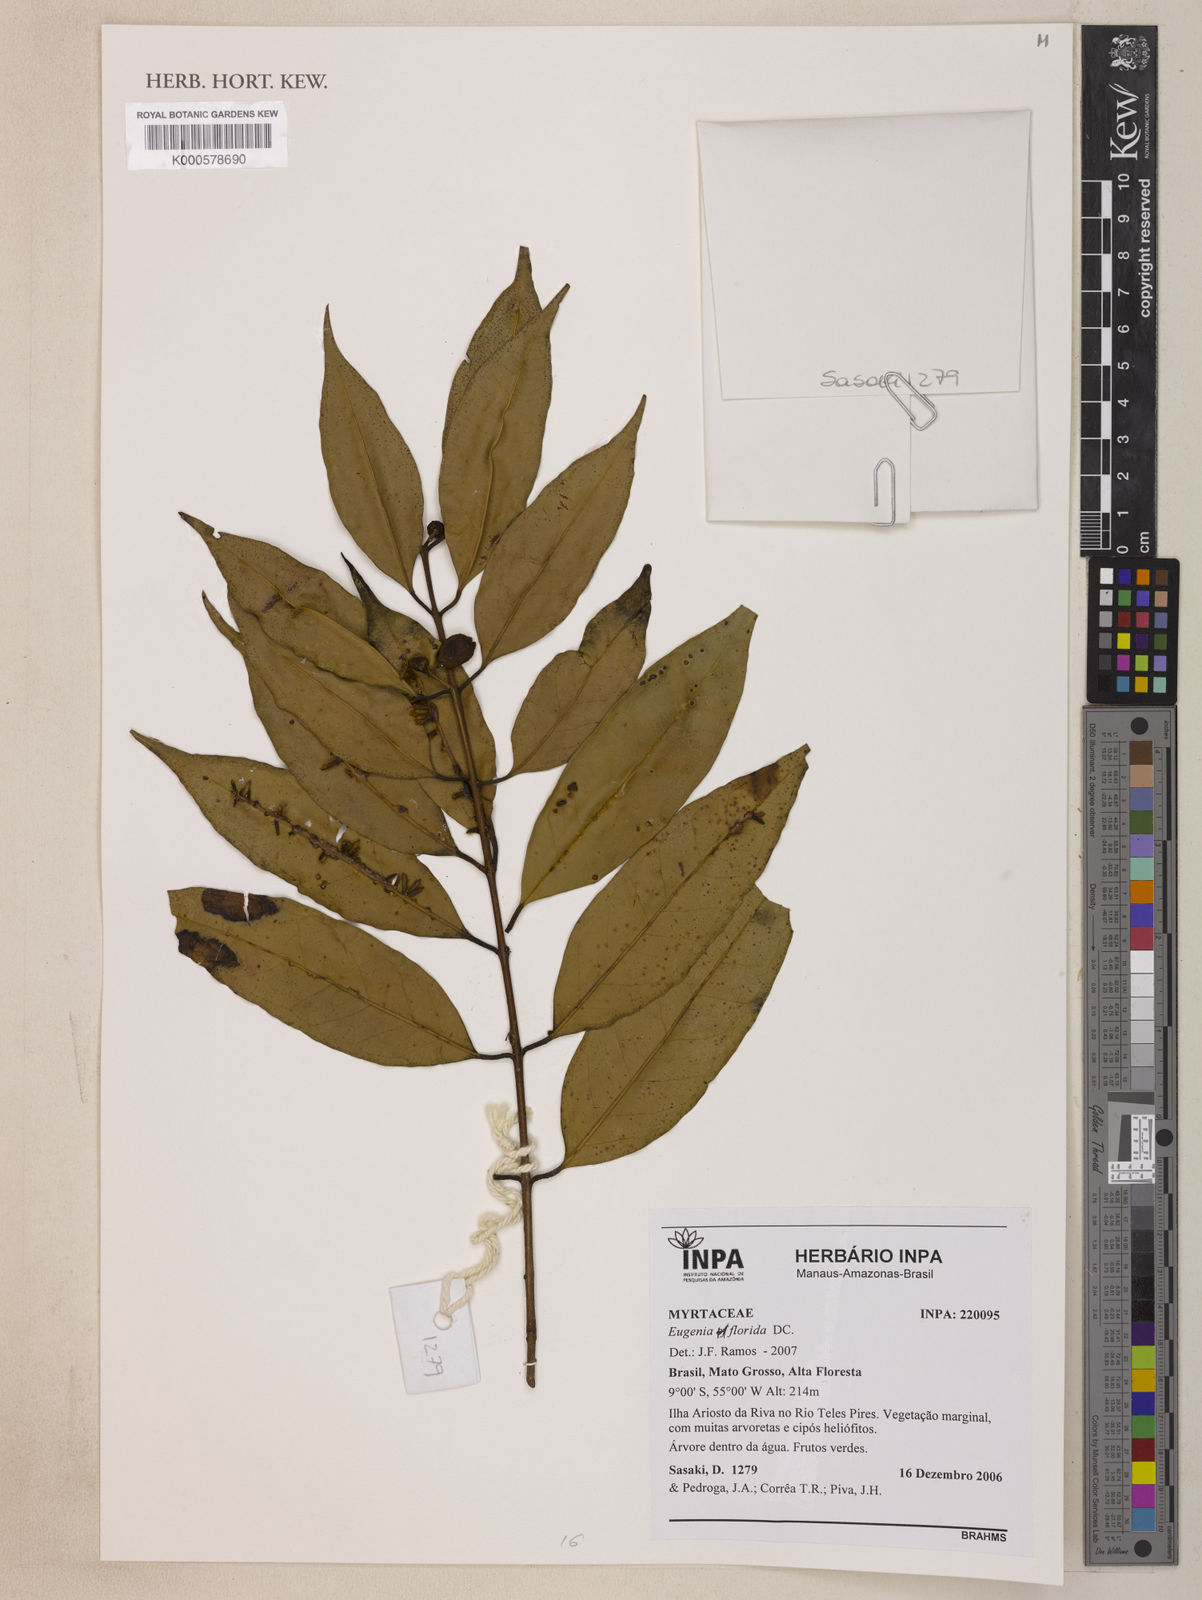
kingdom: Plantae
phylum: Tracheophyta
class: Magnoliopsida
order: Myrtales
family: Myrtaceae
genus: Eugenia
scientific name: Eugenia florida
